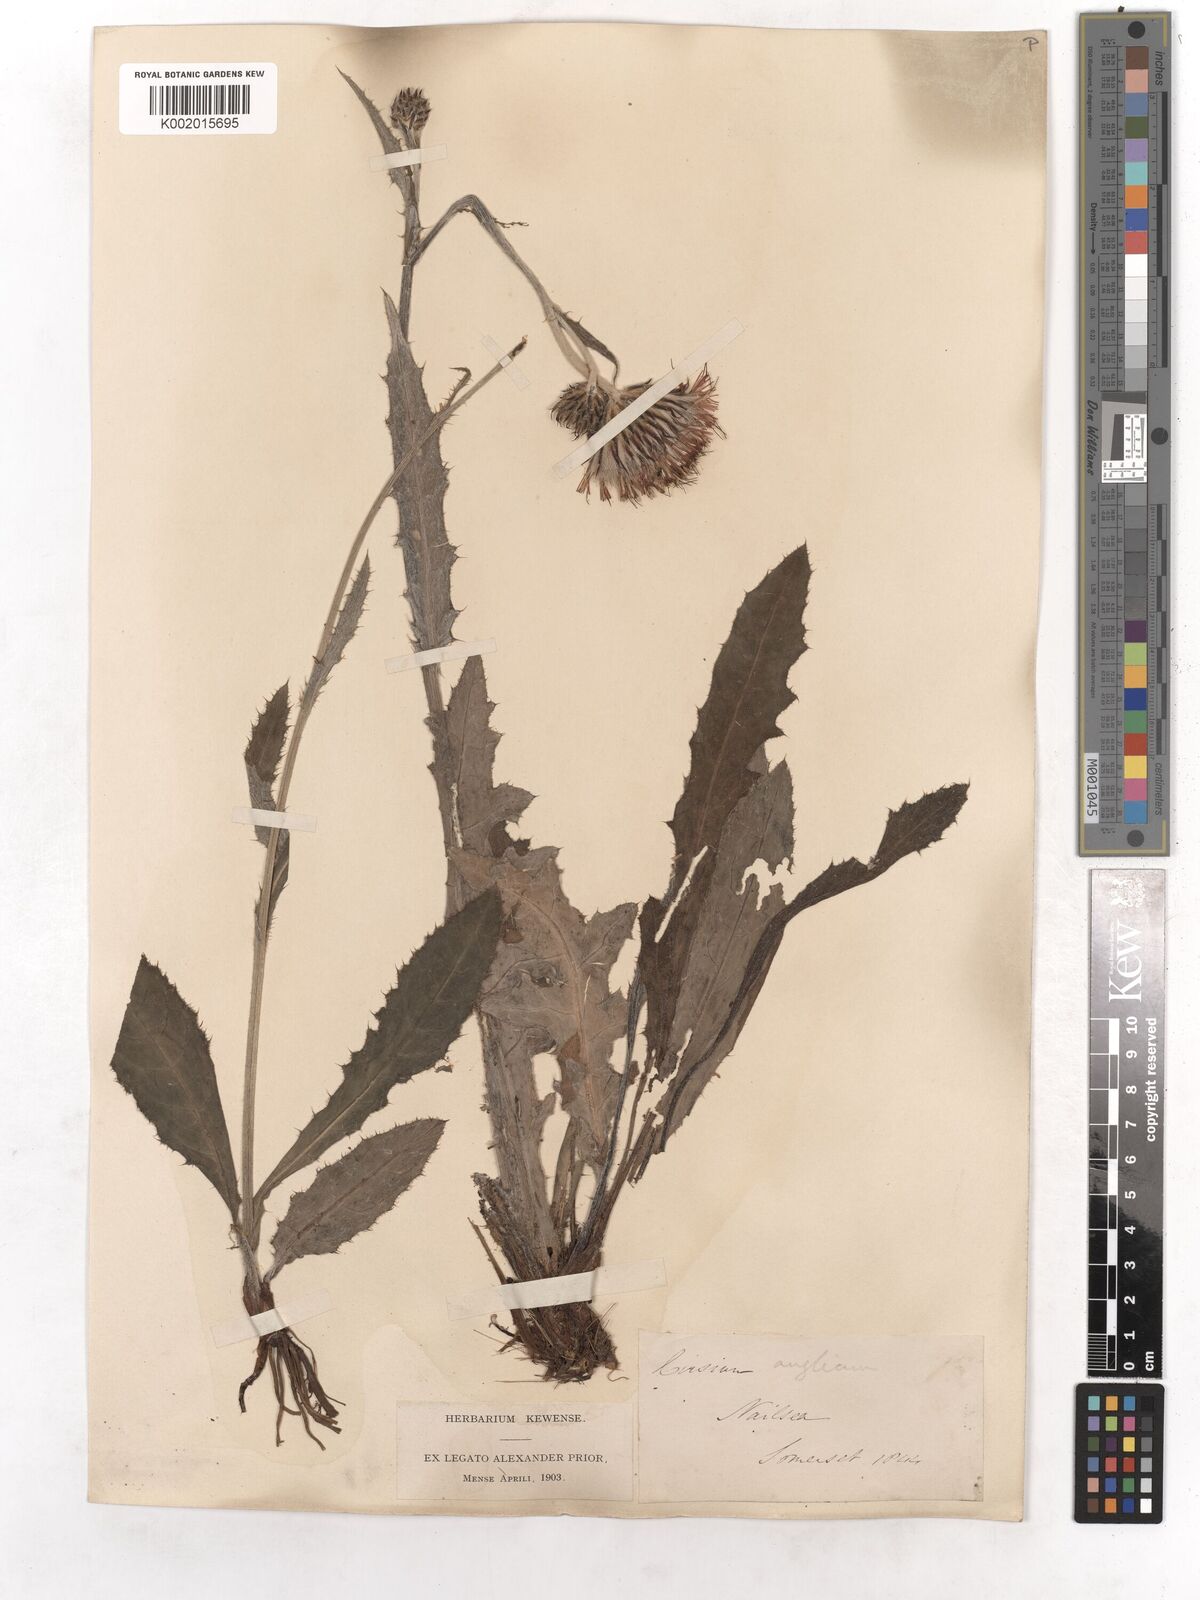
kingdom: Plantae
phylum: Tracheophyta
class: Magnoliopsida
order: Asterales
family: Asteraceae
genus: Cirsium
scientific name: Cirsium dissectum
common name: Meadow thistle
